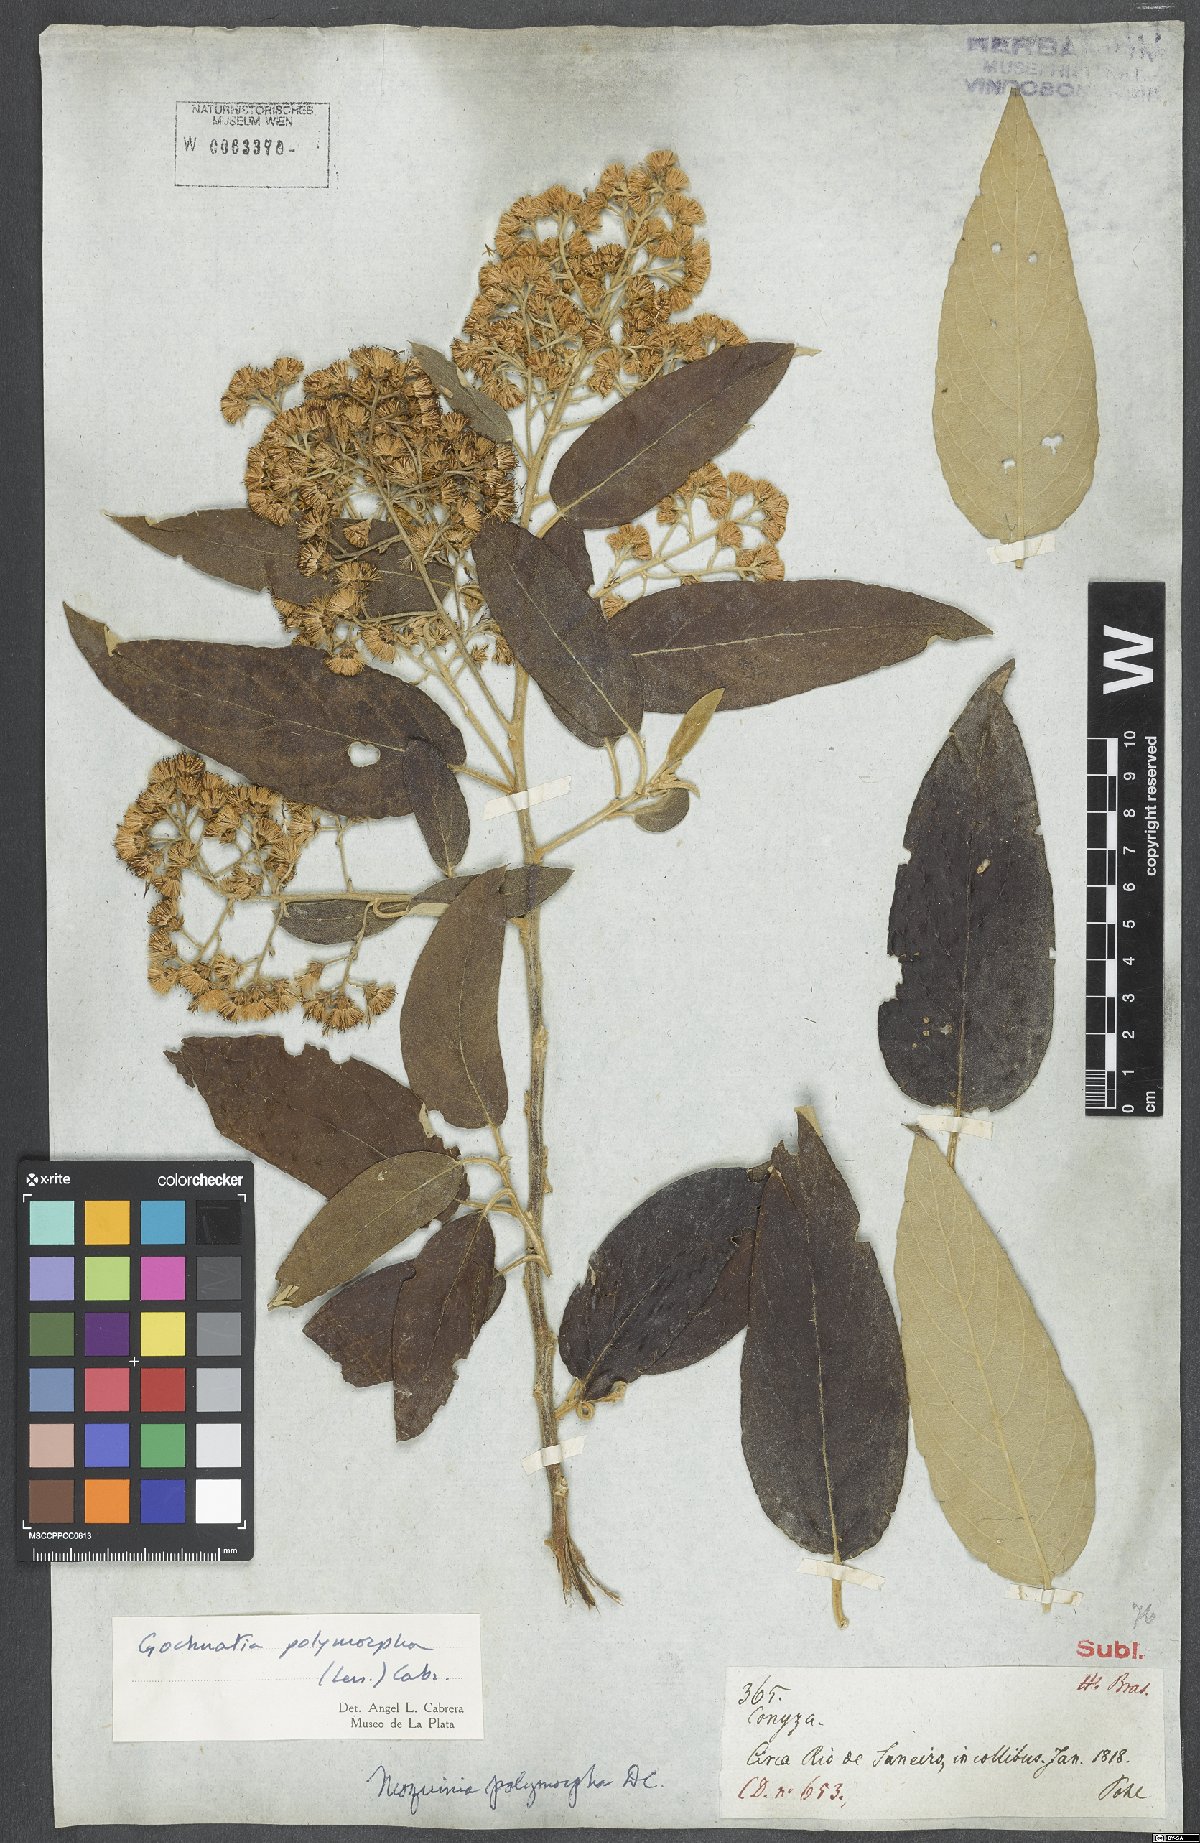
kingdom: Plantae
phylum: Tracheophyta
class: Magnoliopsida
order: Asterales
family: Asteraceae
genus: Moquiniastrum
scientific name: Moquiniastrum polymorphum
